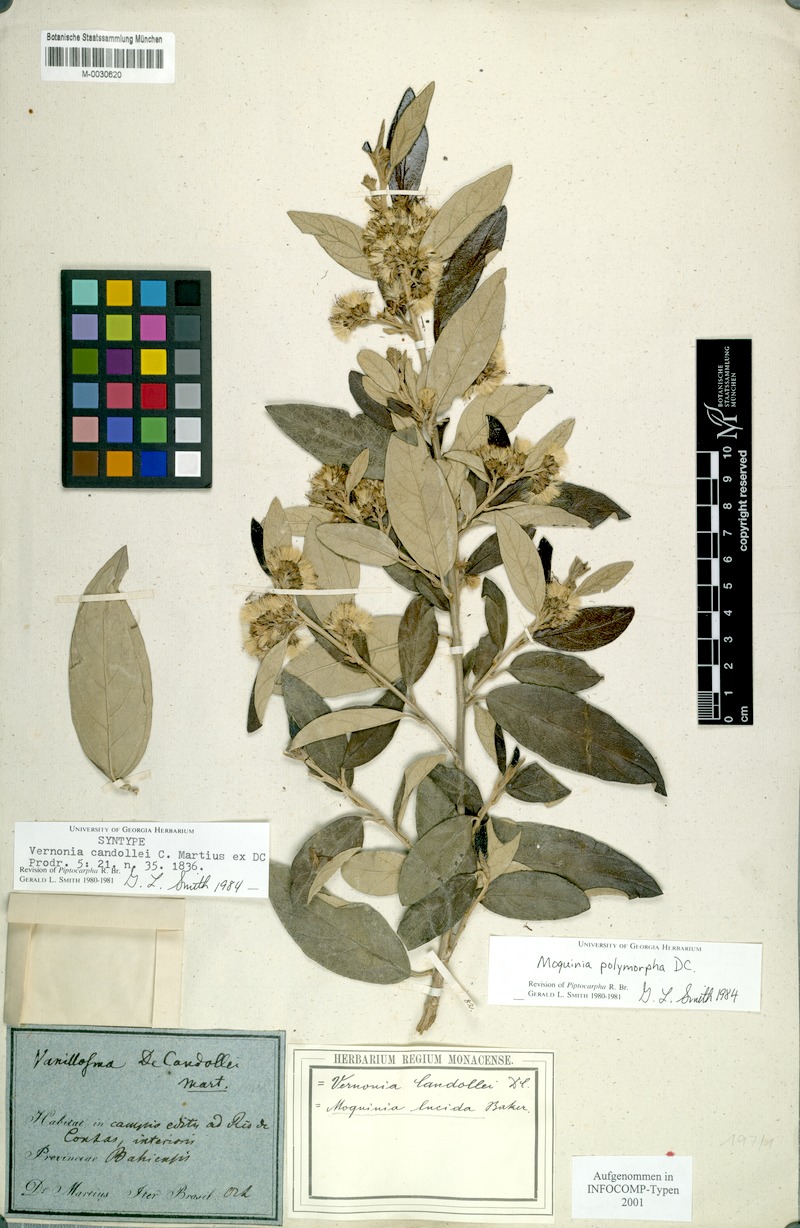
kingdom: Plantae
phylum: Tracheophyta
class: Magnoliopsida
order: Asterales
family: Asteraceae
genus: Moquiniastrum
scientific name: Moquiniastrum polymorphum
